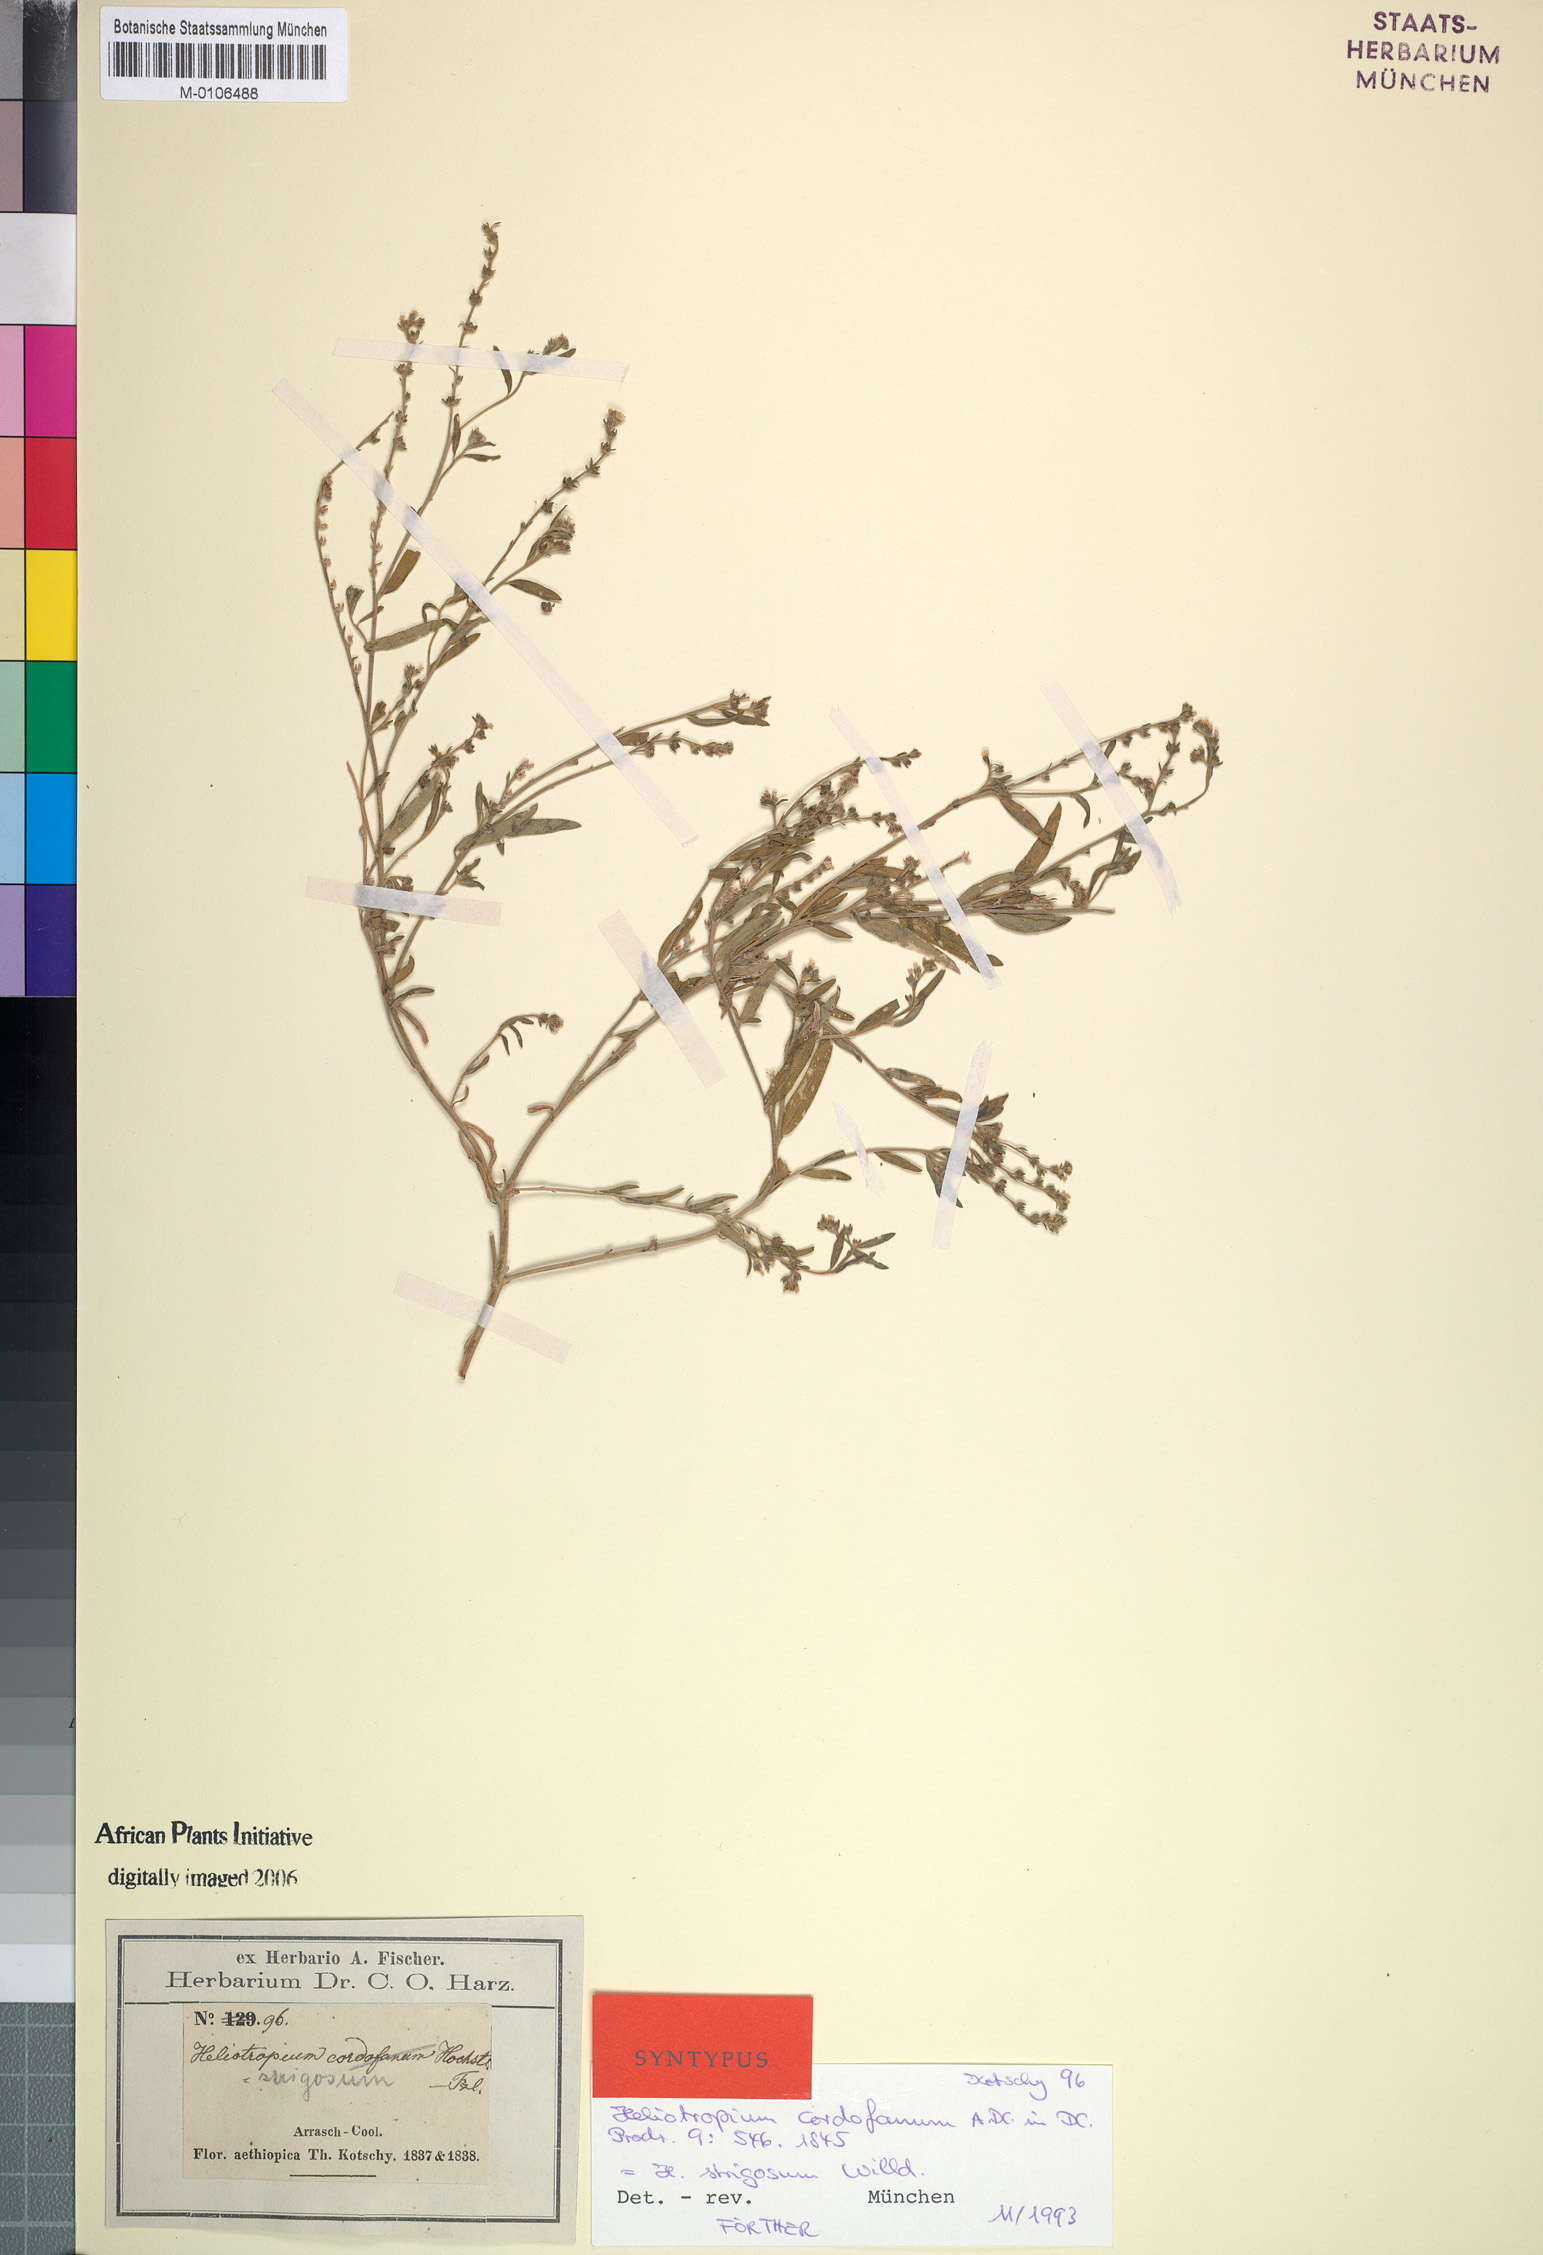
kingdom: Plantae
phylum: Tracheophyta
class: Magnoliopsida
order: Boraginales
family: Heliotropiaceae
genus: Euploca
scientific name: Euploca strigosa
